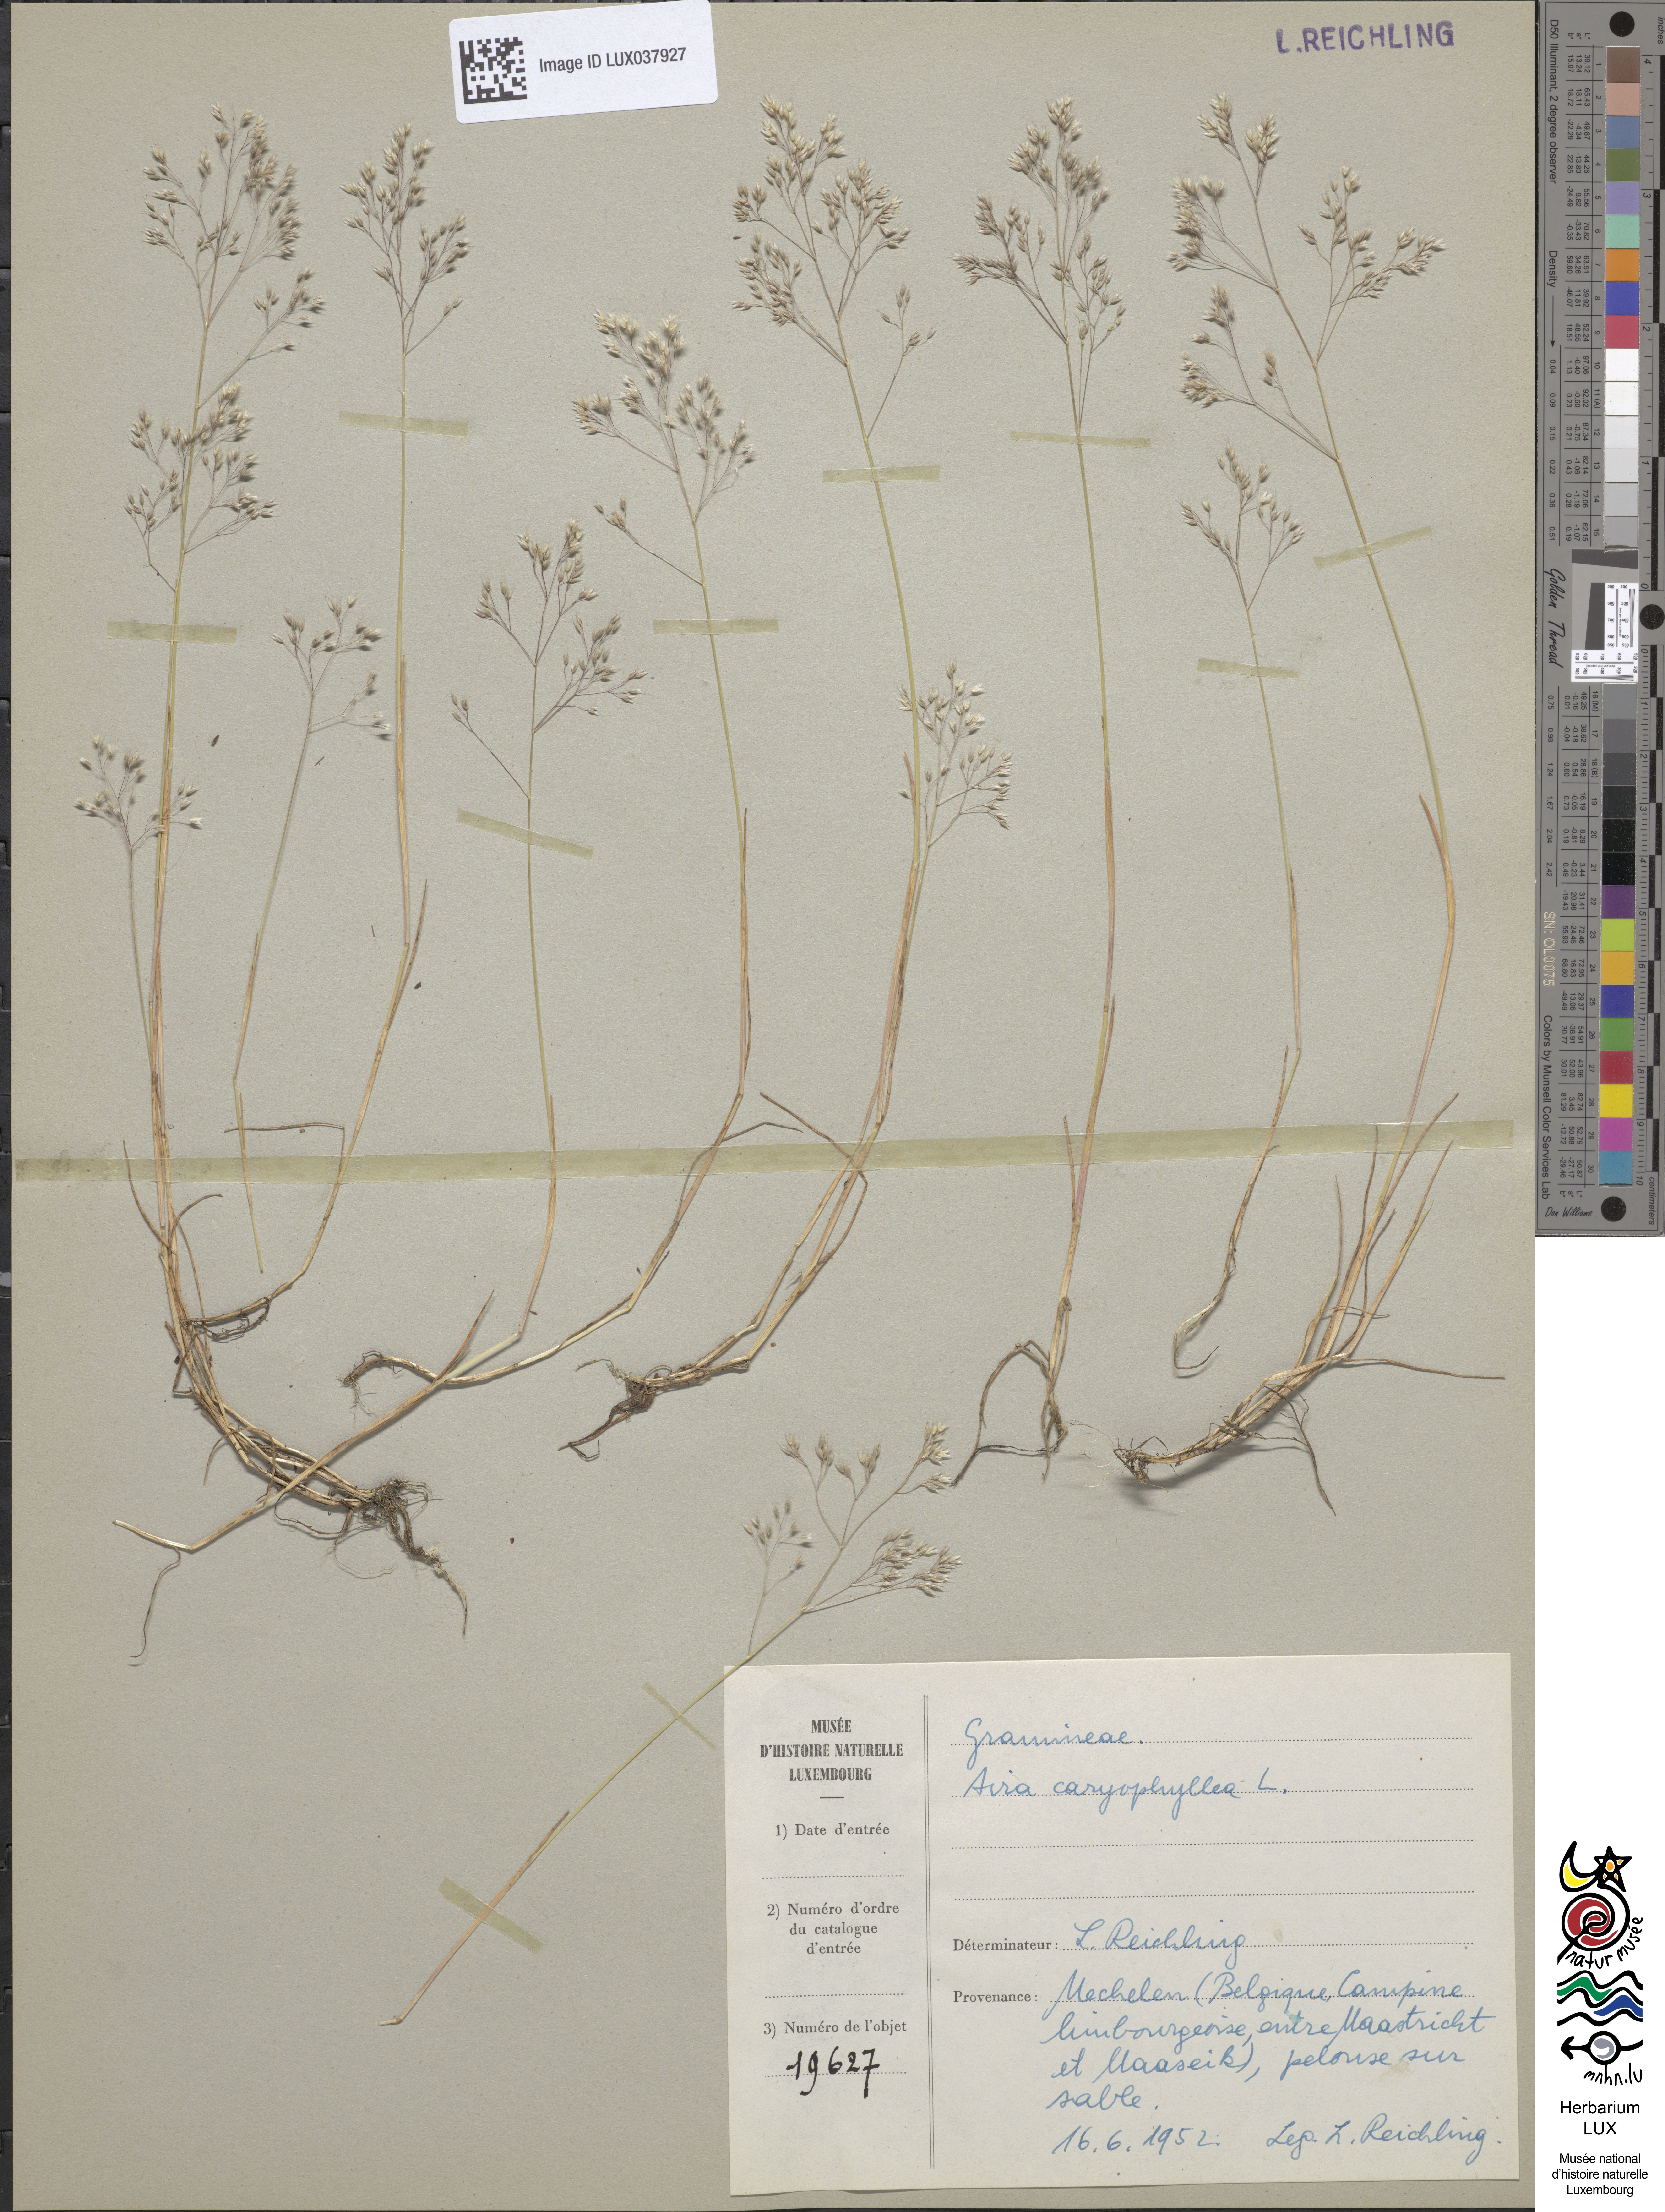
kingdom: Plantae
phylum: Tracheophyta
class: Liliopsida
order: Poales
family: Poaceae
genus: Aira
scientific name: Aira caryophyllea
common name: Silver hairgrass
